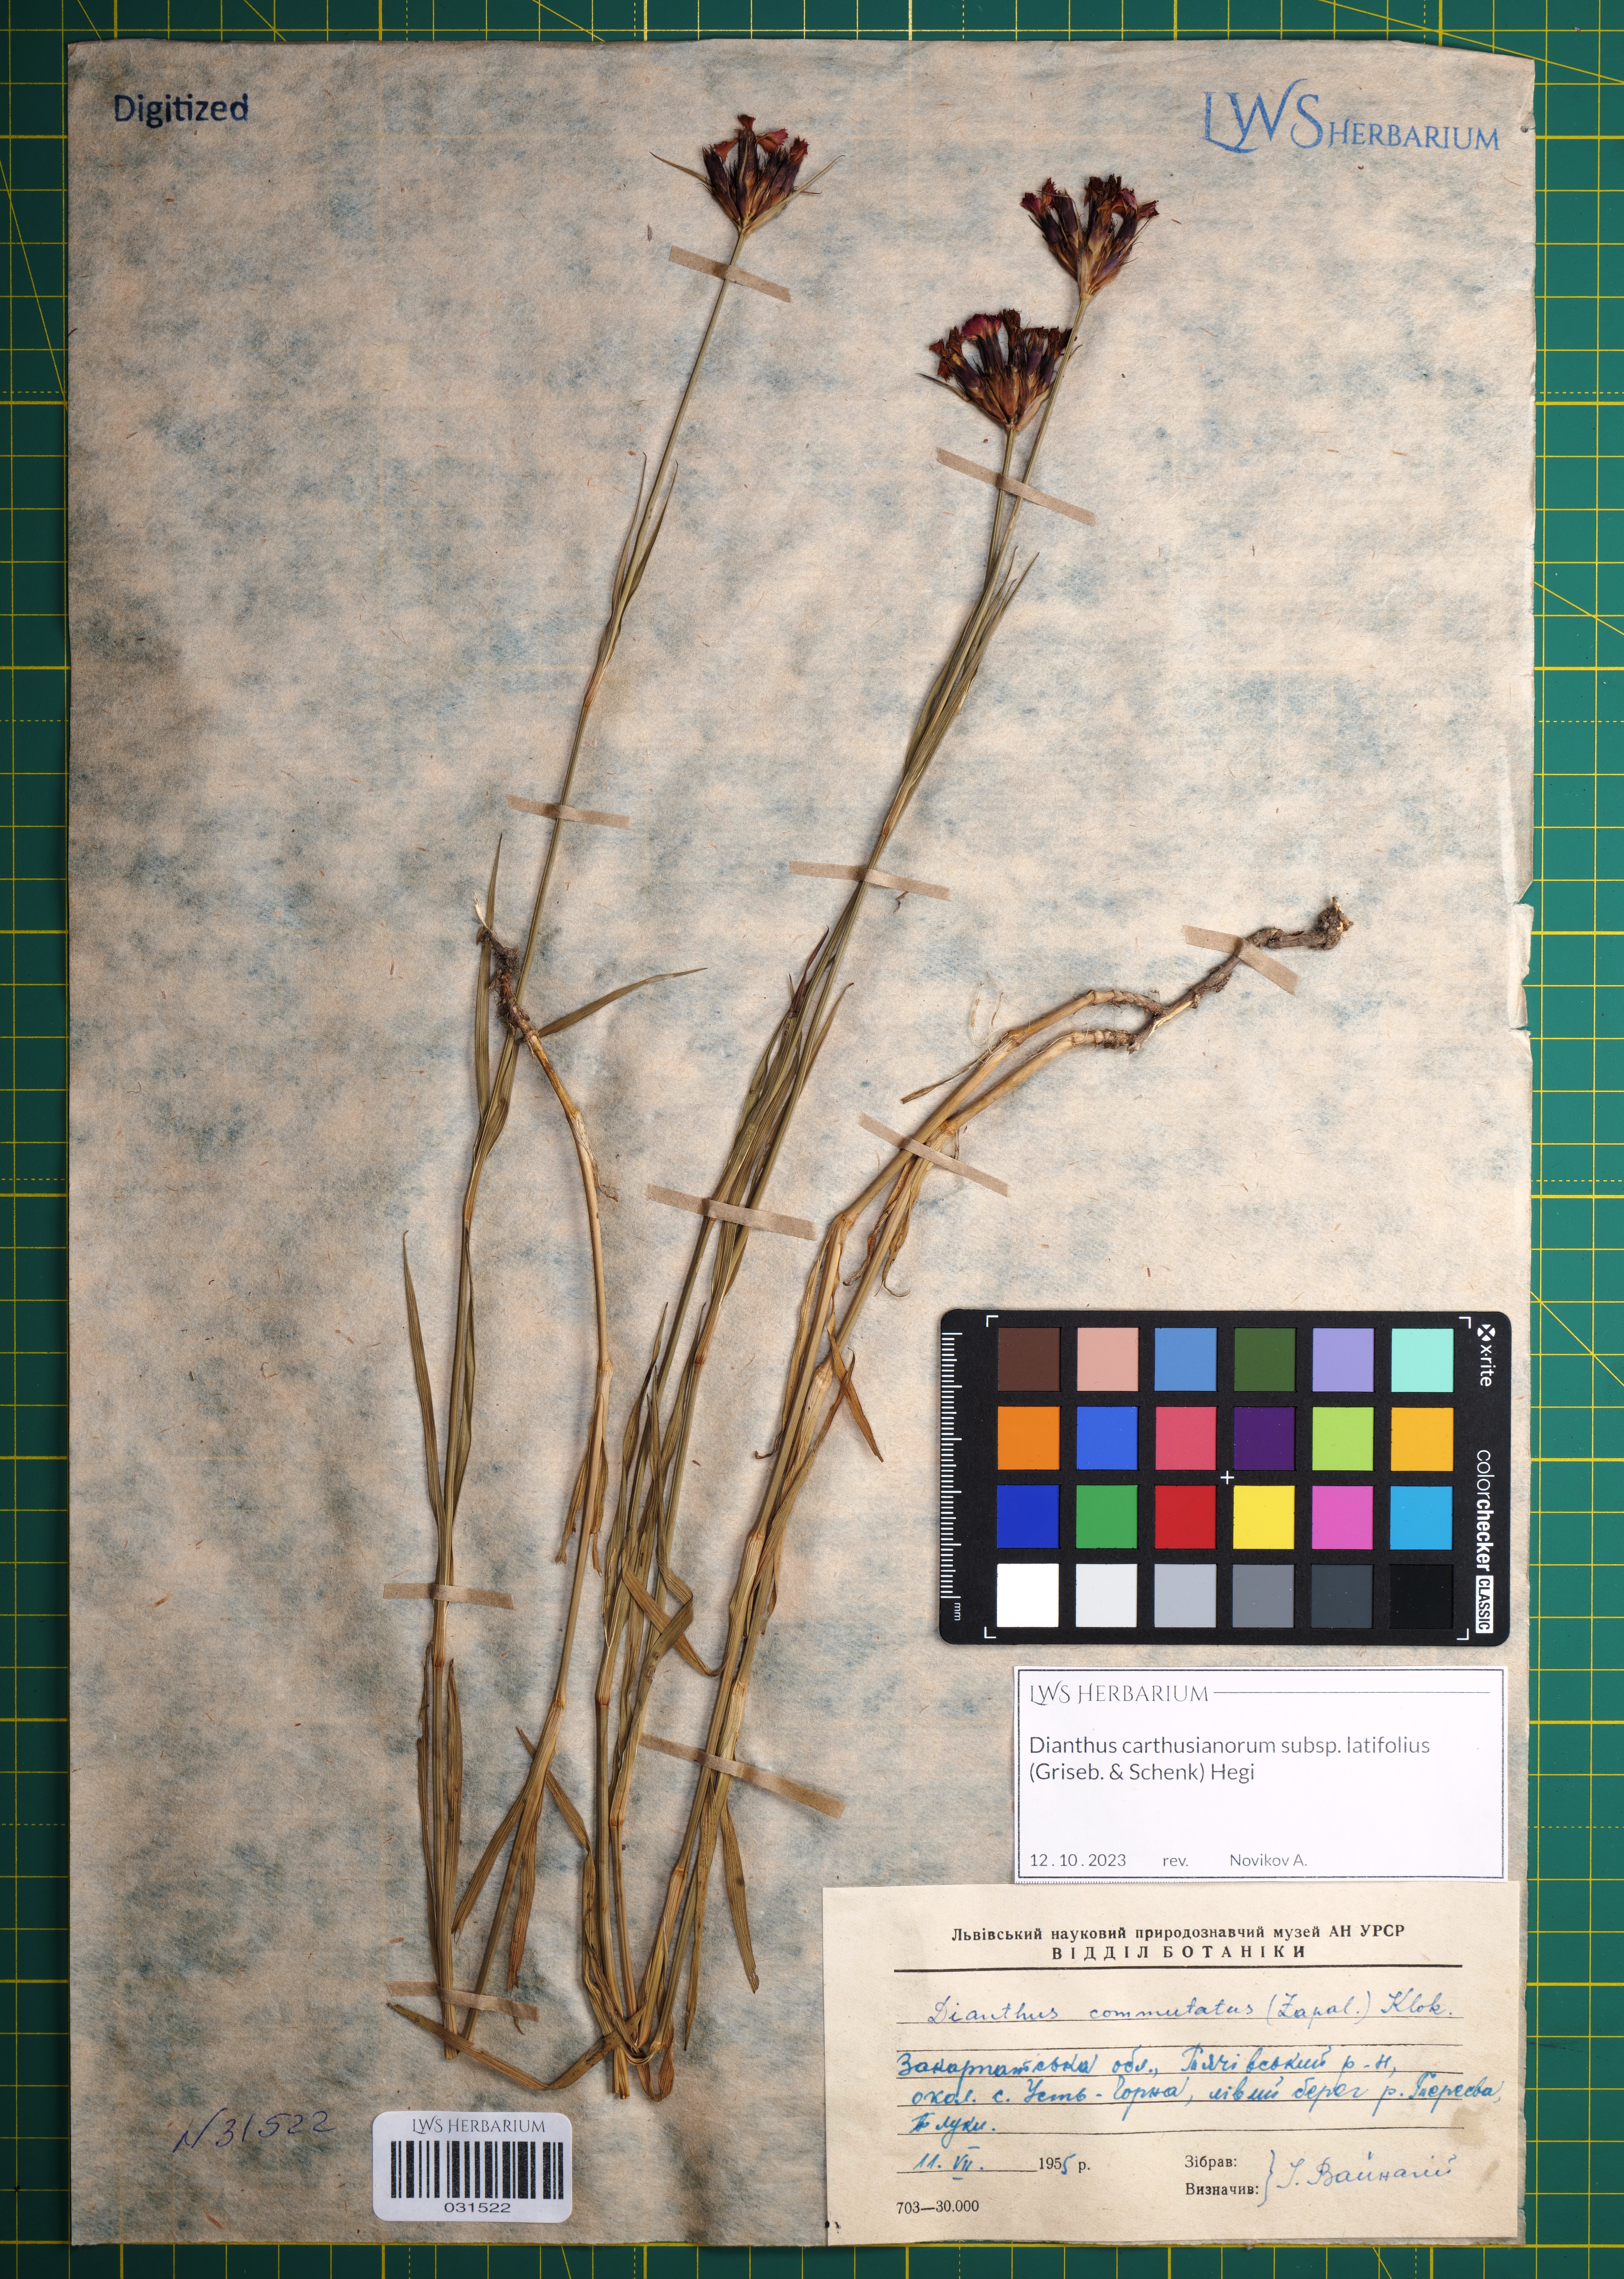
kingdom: Plantae
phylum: Tracheophyta
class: Magnoliopsida
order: Caryophyllales
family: Caryophyllaceae
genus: Dianthus
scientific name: Dianthus carthusianorum
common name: Carthusian pink
